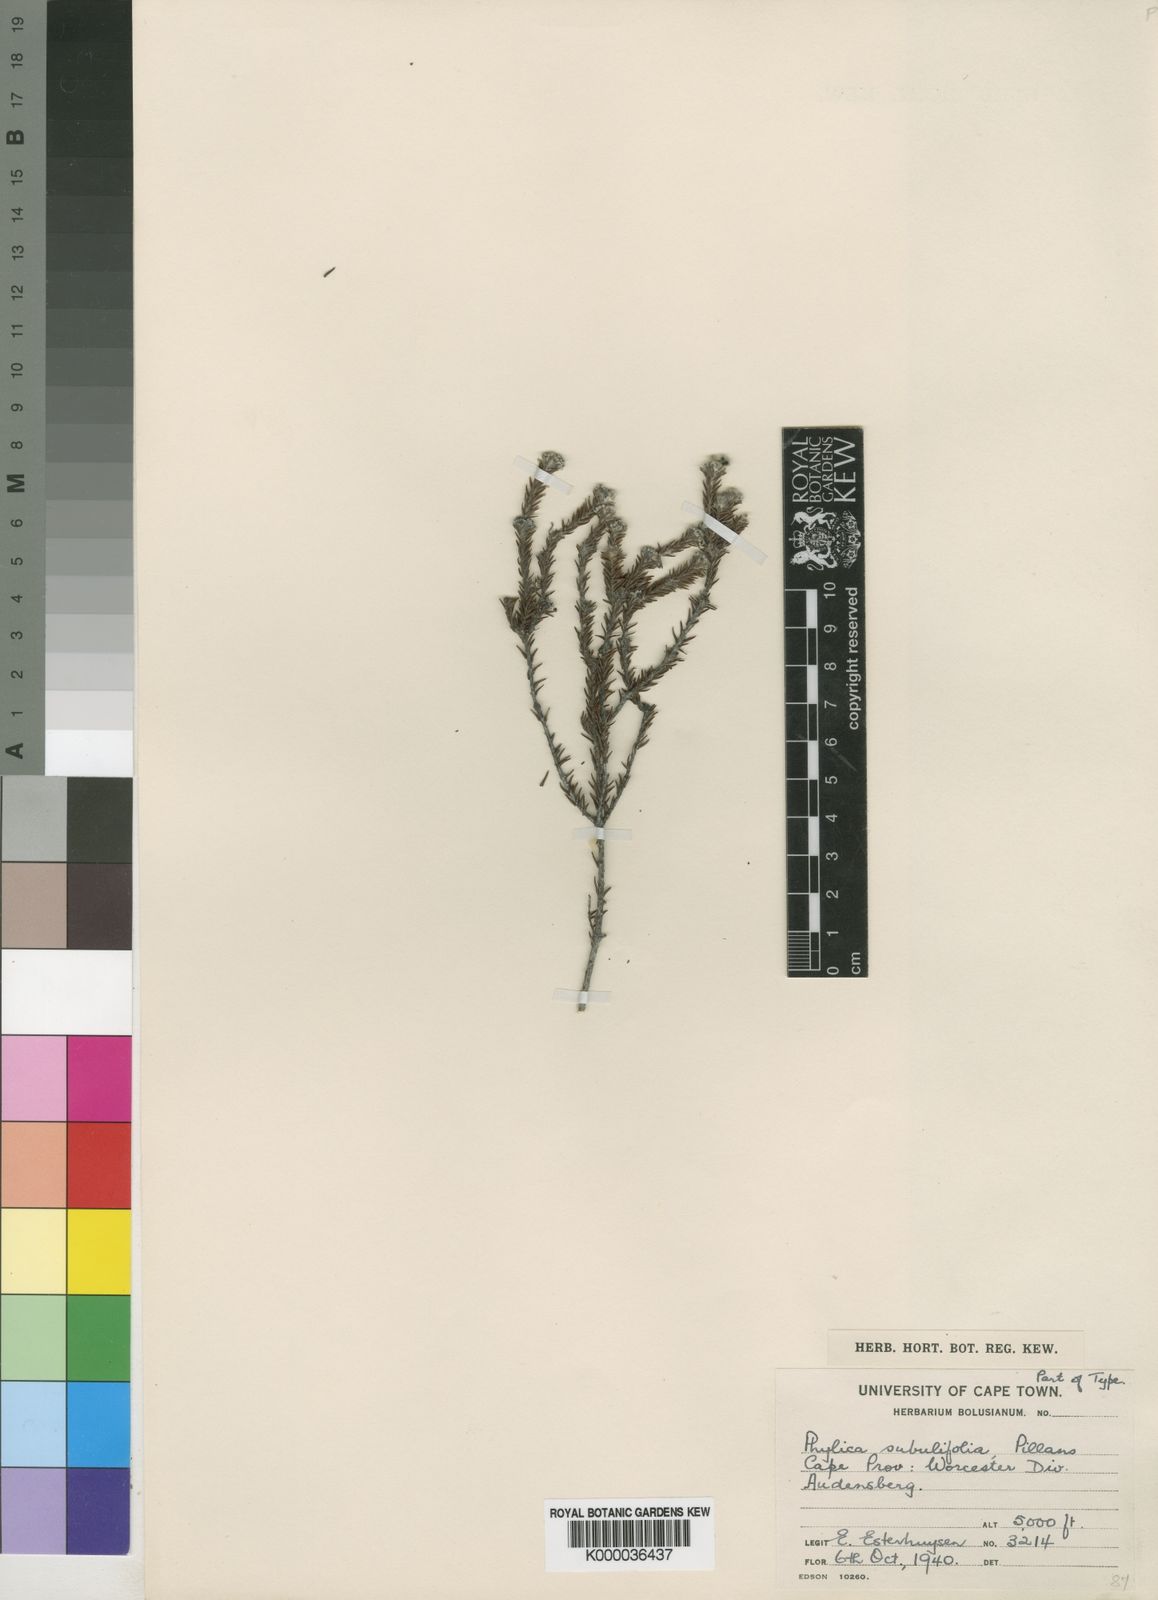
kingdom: Plantae
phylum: Tracheophyta
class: Magnoliopsida
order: Rosales
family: Rhamnaceae
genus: Phylica
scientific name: Phylica subulifolia
